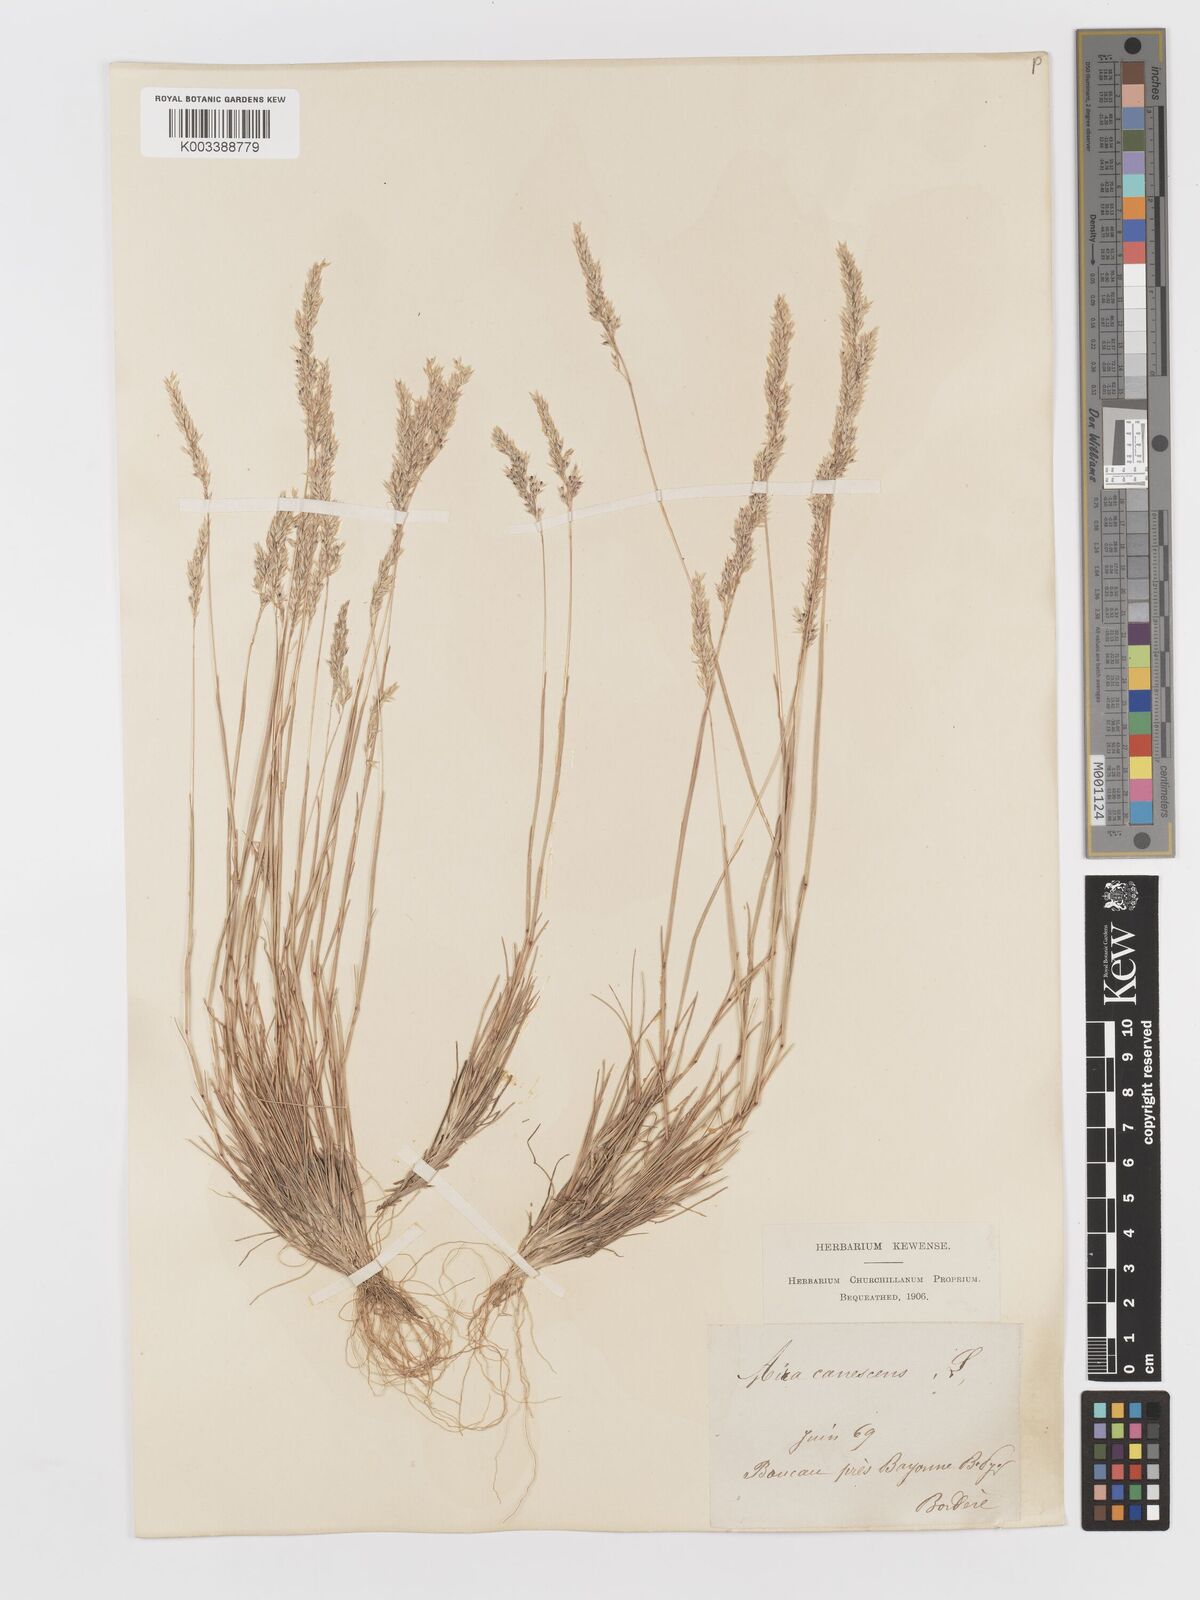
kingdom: Plantae
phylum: Tracheophyta
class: Liliopsida
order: Poales
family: Poaceae
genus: Corynephorus
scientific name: Corynephorus canescens
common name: Grey hair-grass
